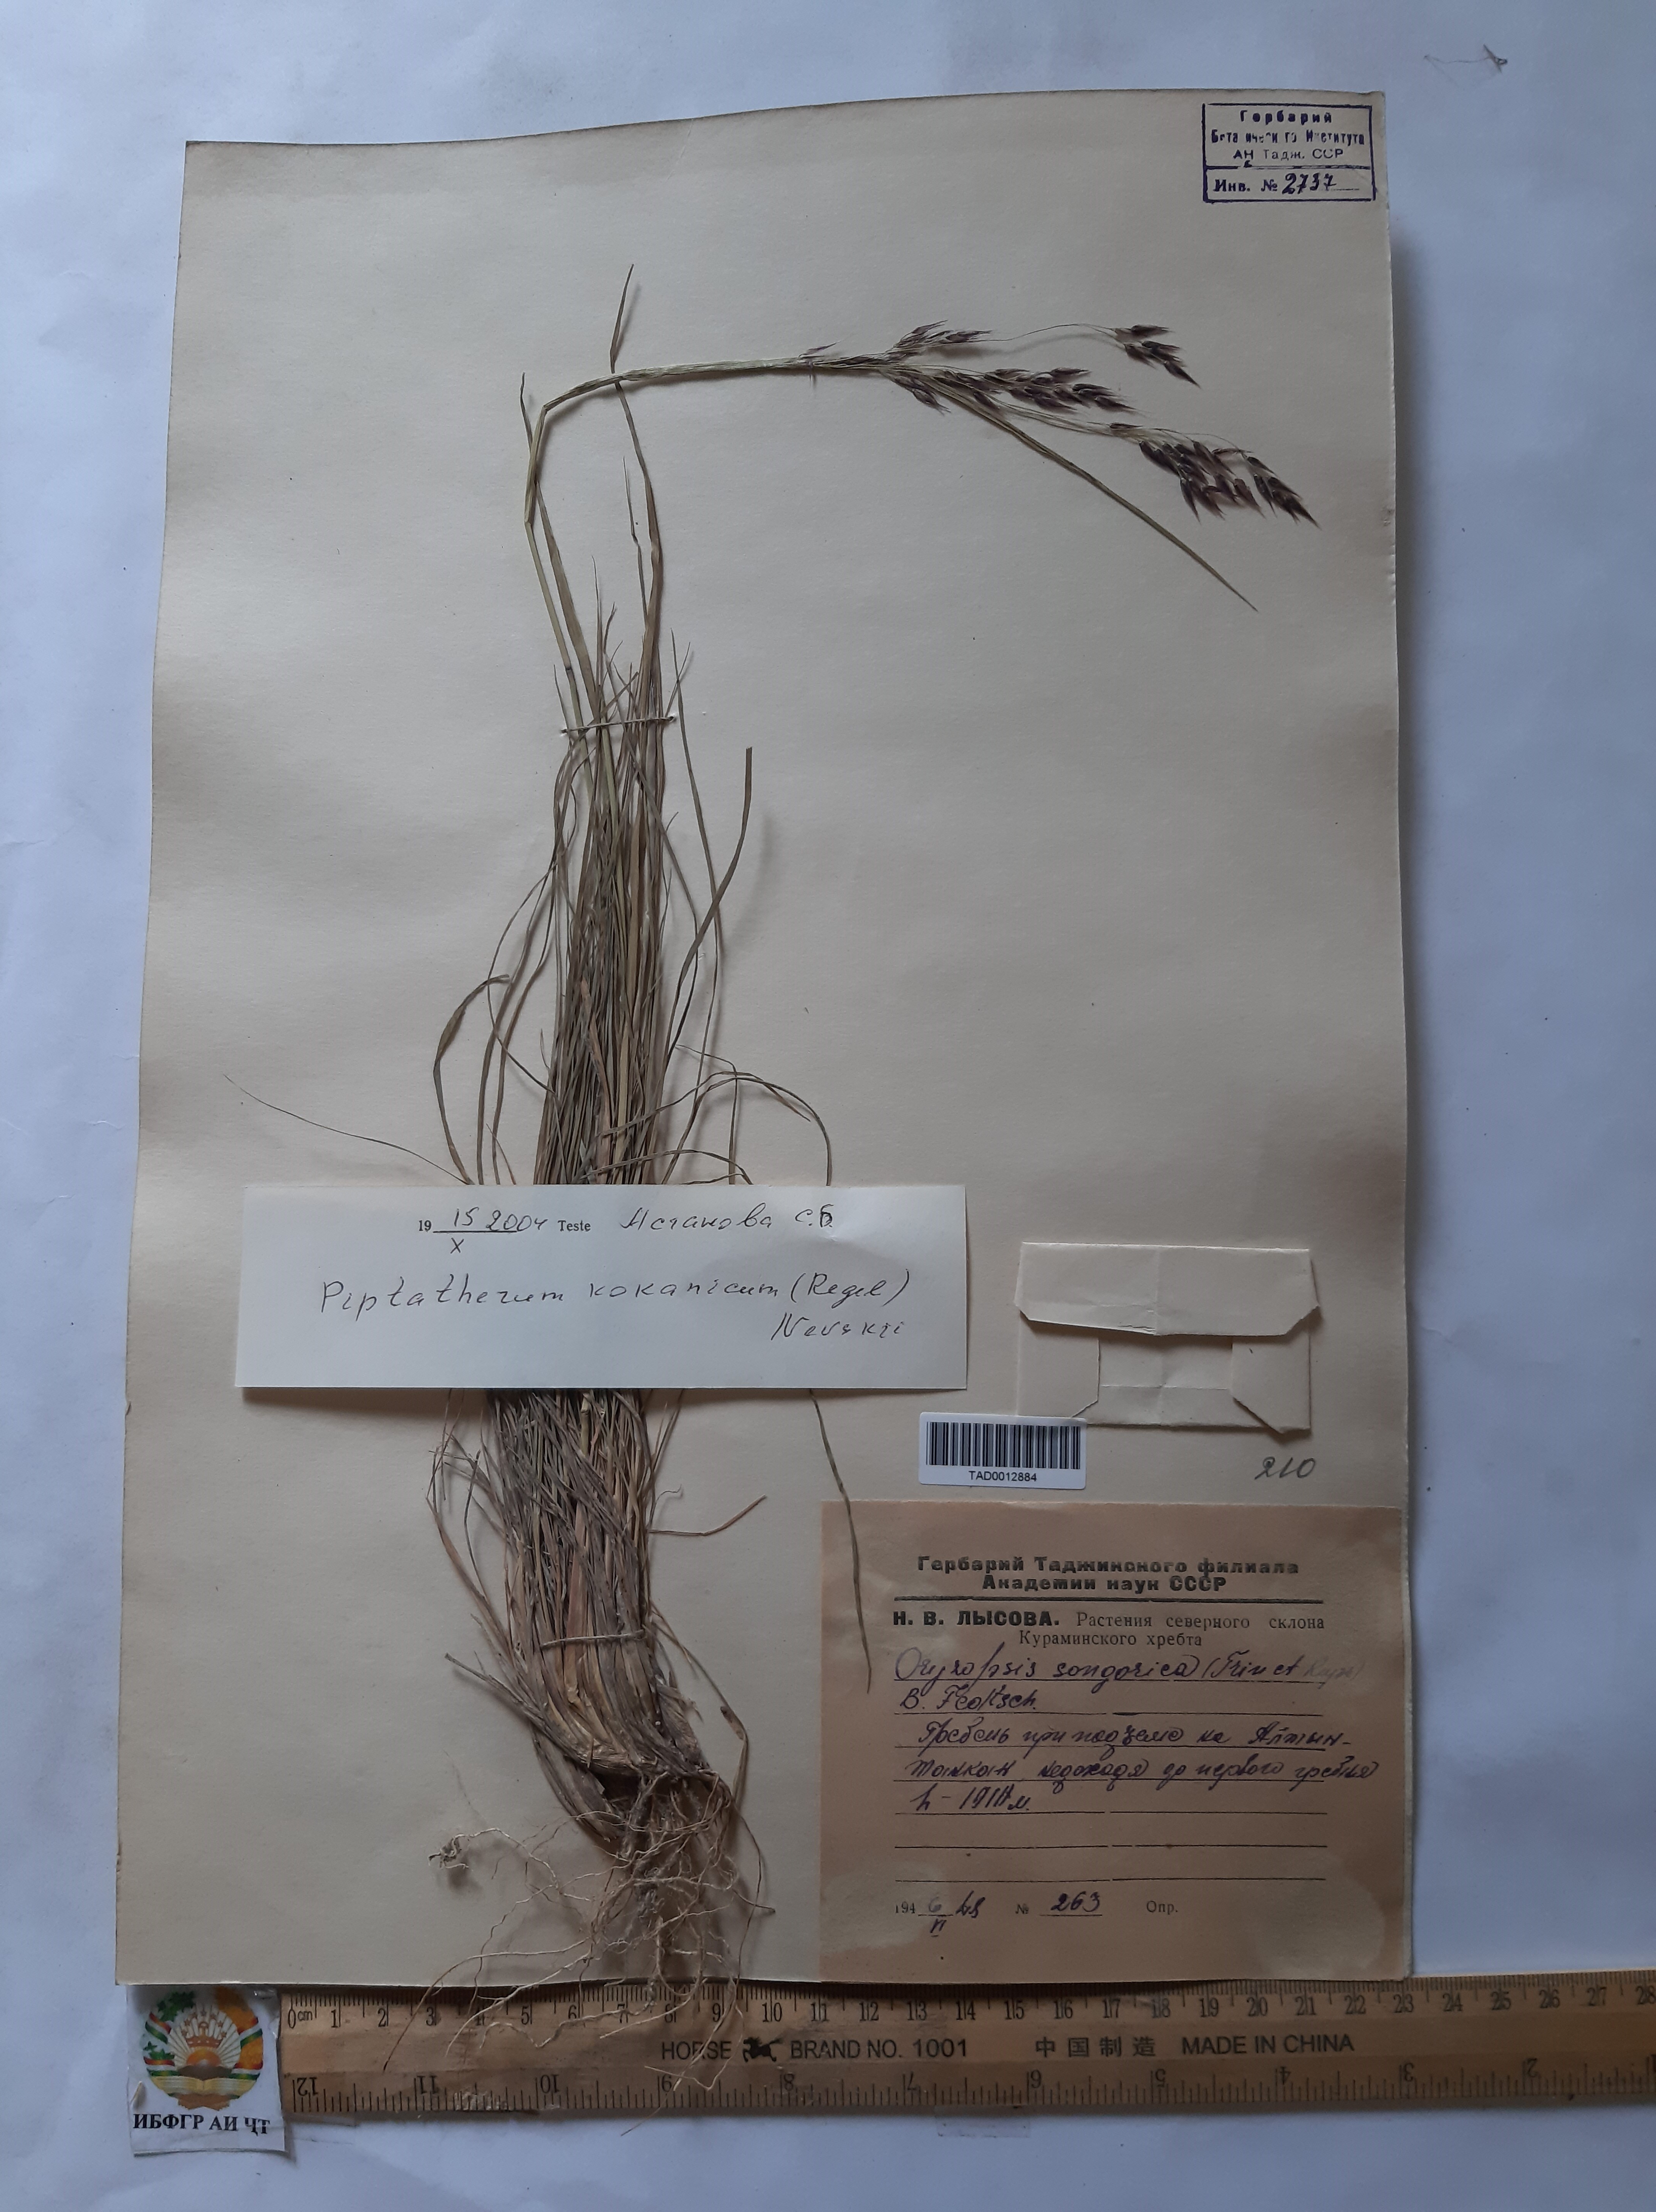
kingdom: Plantae
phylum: Tracheophyta
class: Liliopsida
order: Poales
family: Poaceae
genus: Piptatherum
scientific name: Piptatherum songaricum
